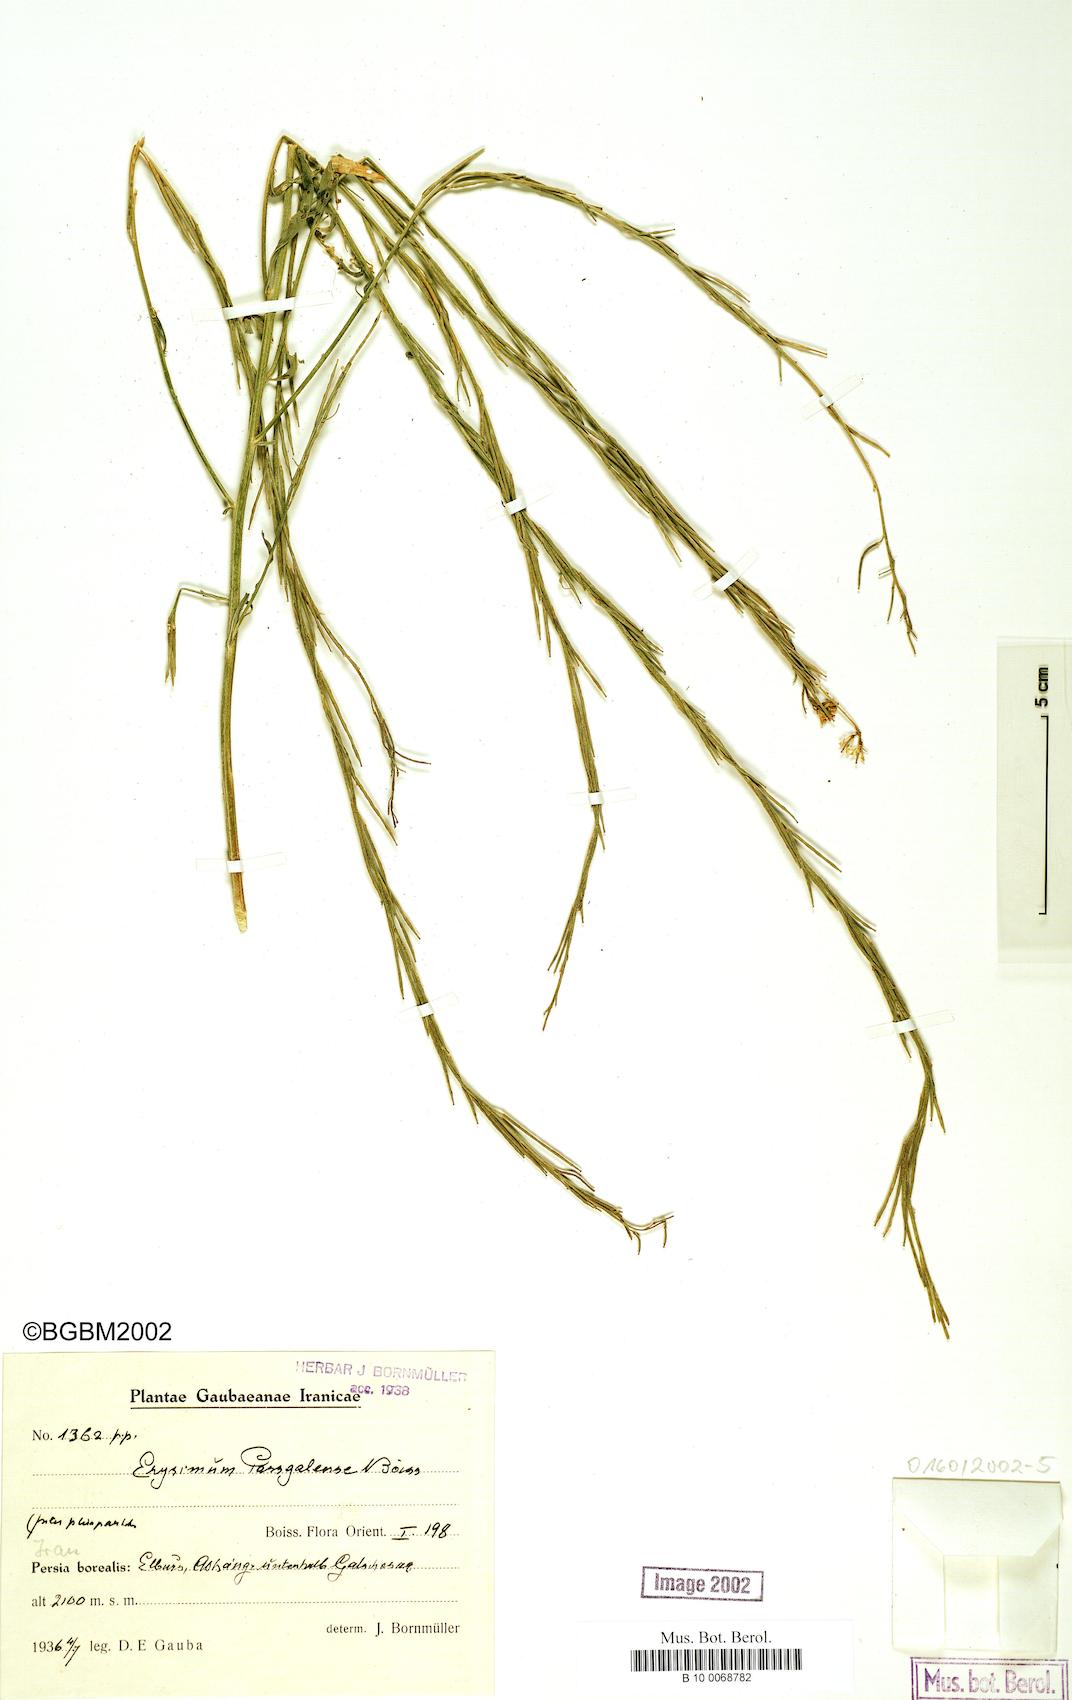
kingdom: Plantae
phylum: Tracheophyta
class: Magnoliopsida
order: Brassicales
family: Brassicaceae
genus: Erysimum
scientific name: Erysimum aucherianum
